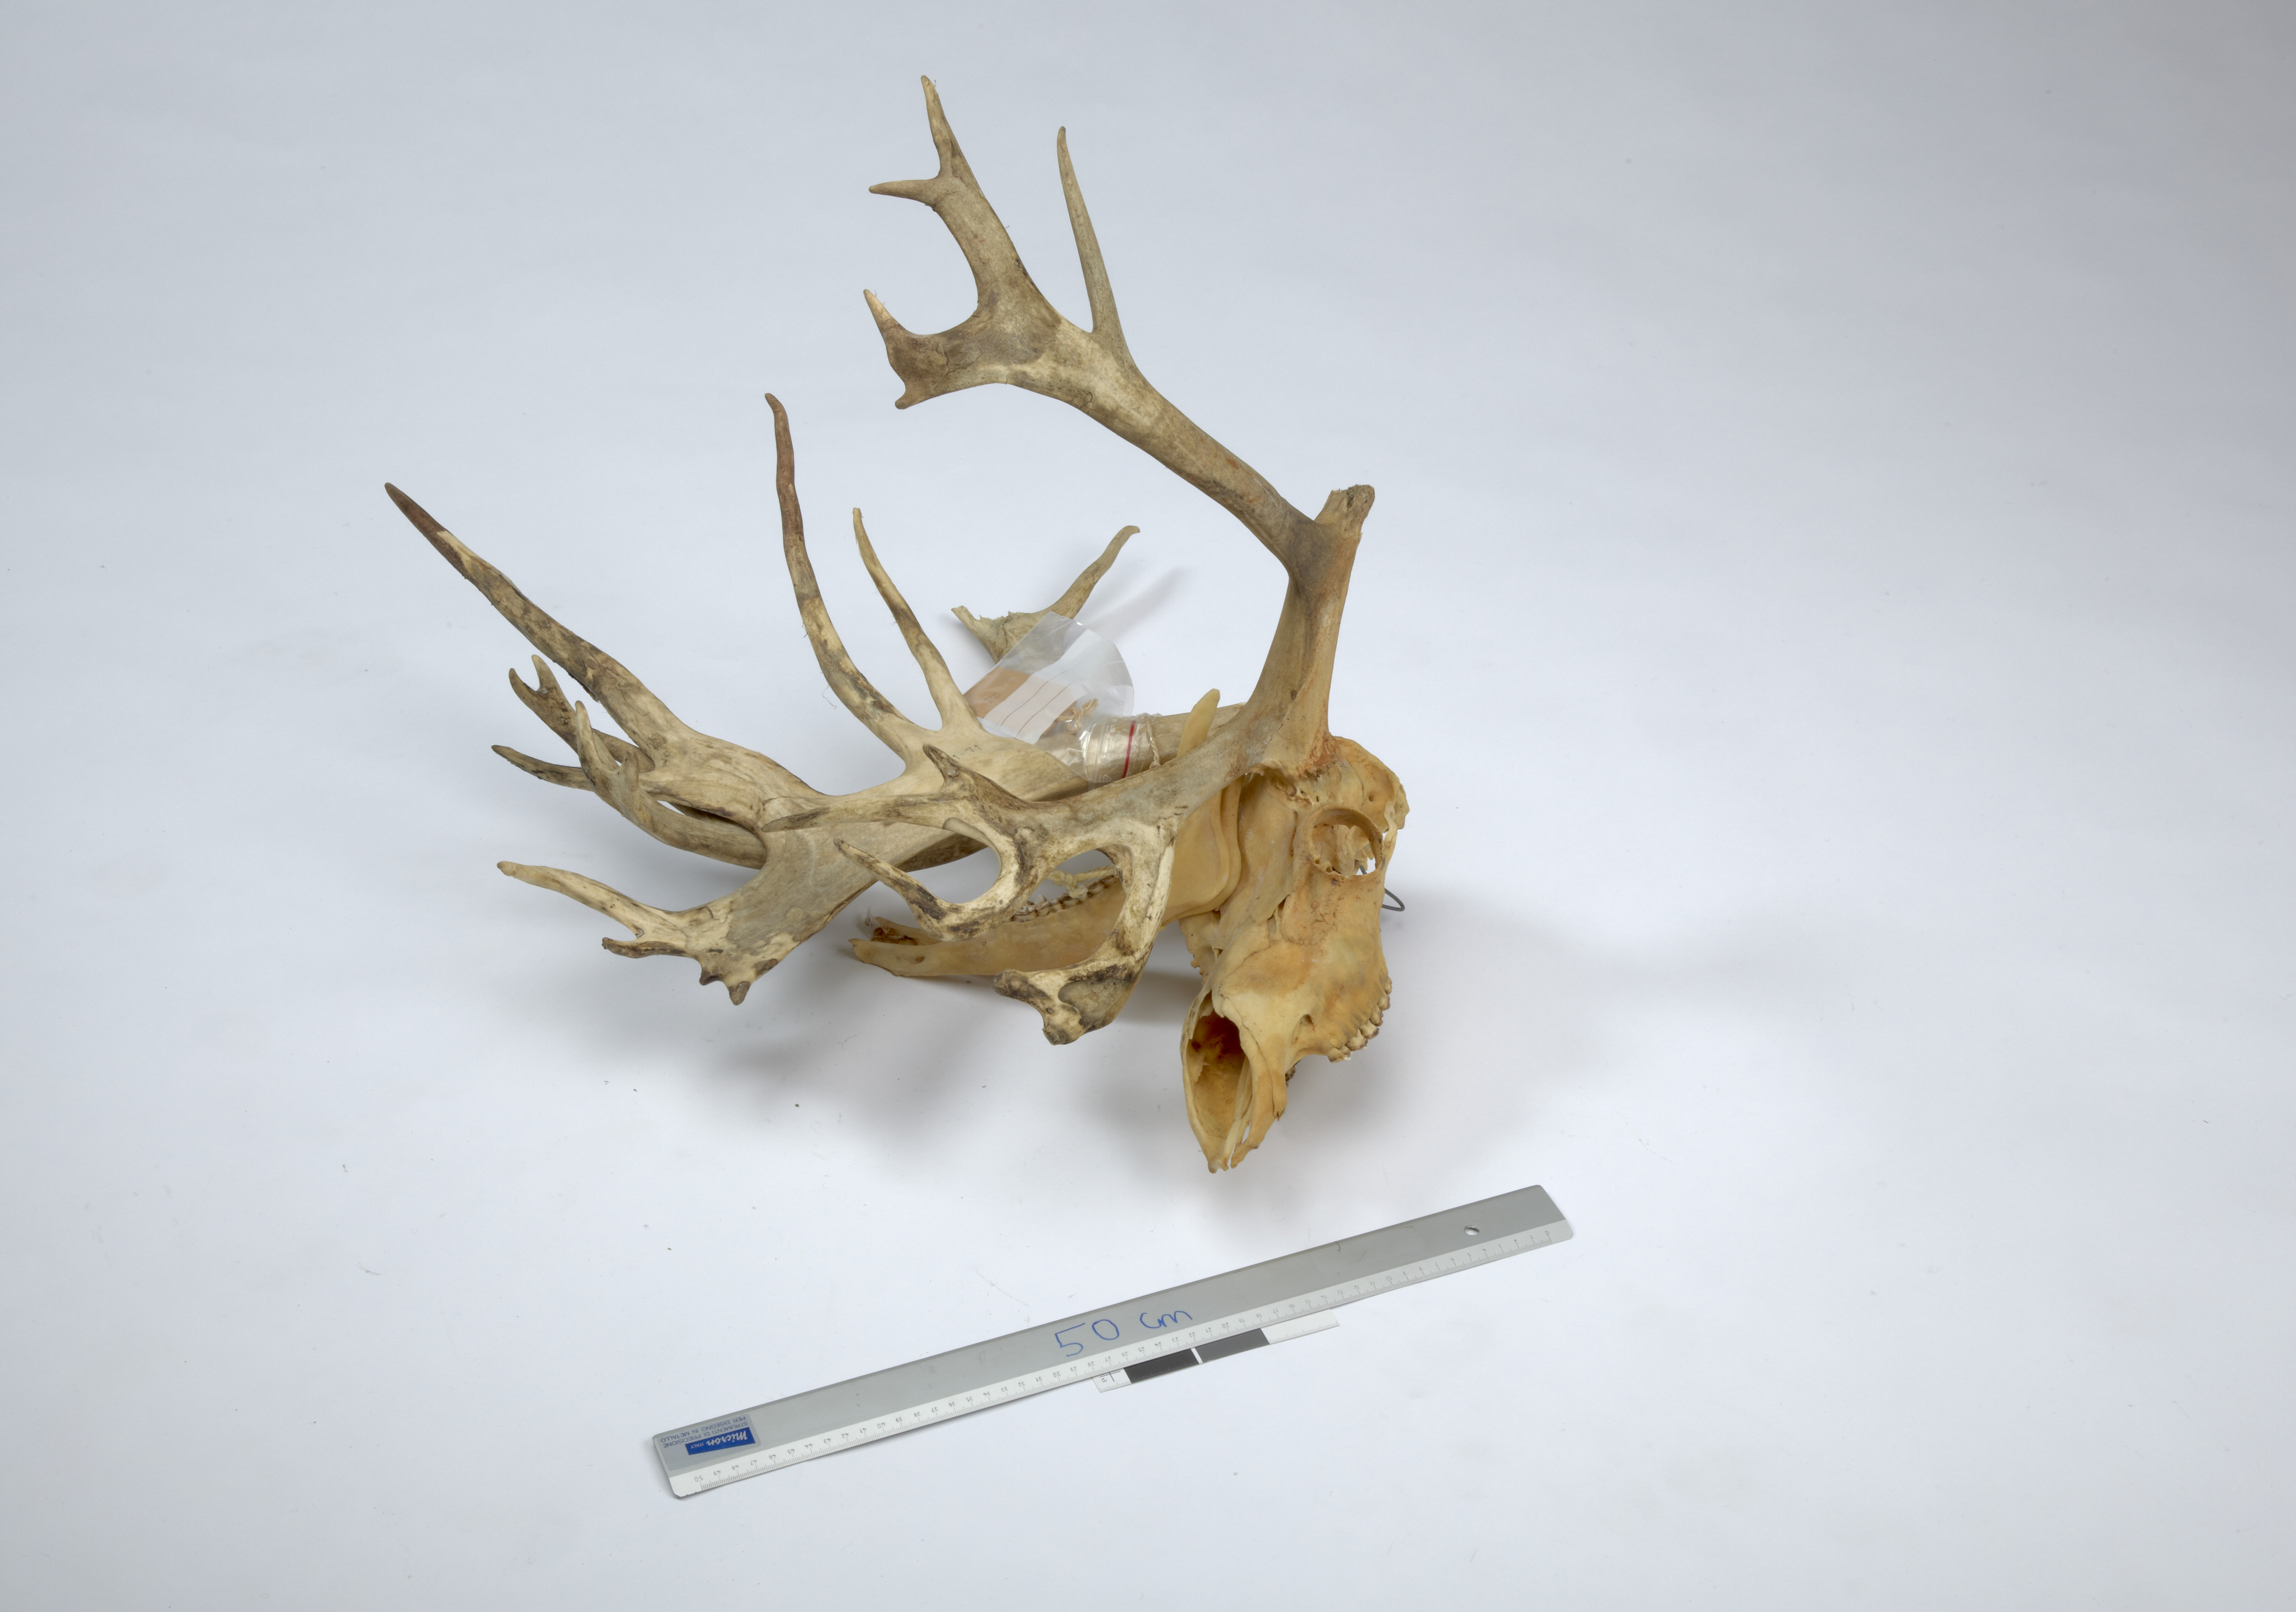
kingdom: Animalia
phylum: Chordata
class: Mammalia
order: Artiodactyla
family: Cervidae
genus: Rangifer
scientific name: Rangifer tarandus
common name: Reindeer
